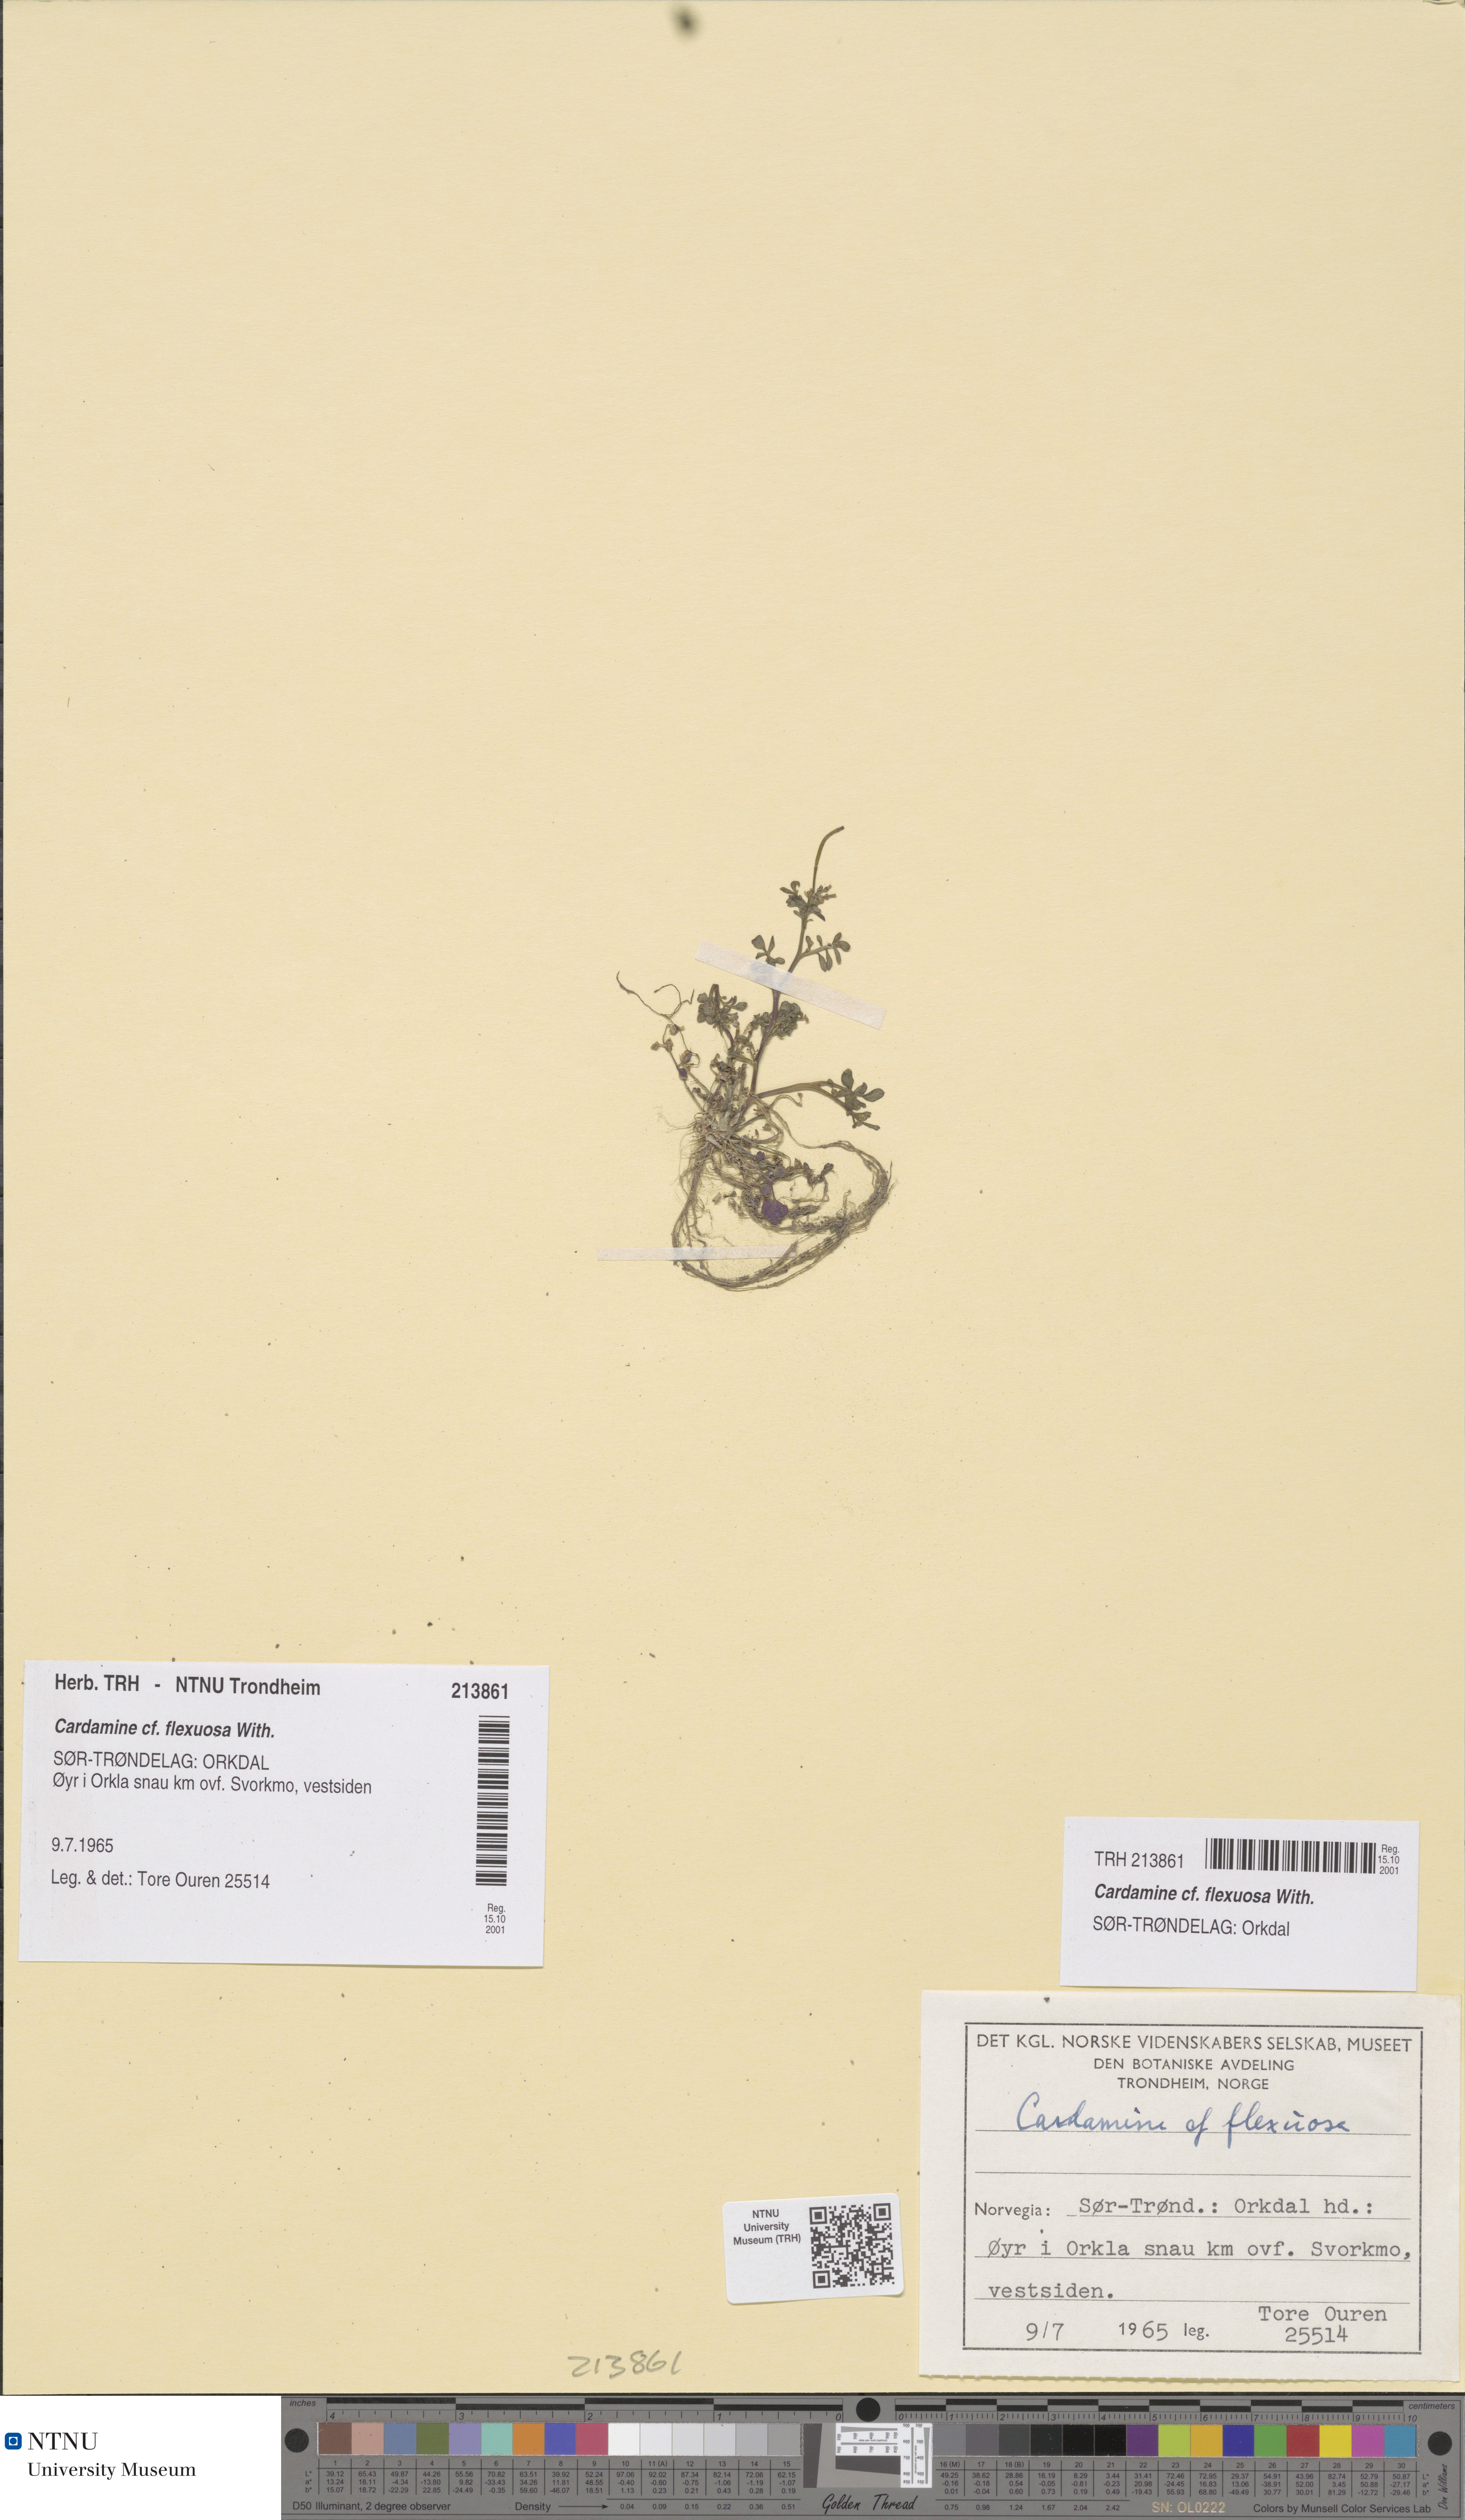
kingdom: Plantae
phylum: Tracheophyta
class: Magnoliopsida
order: Brassicales
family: Brassicaceae
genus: Cardamine
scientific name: Cardamine flexuosa
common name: Woodland bittercress
